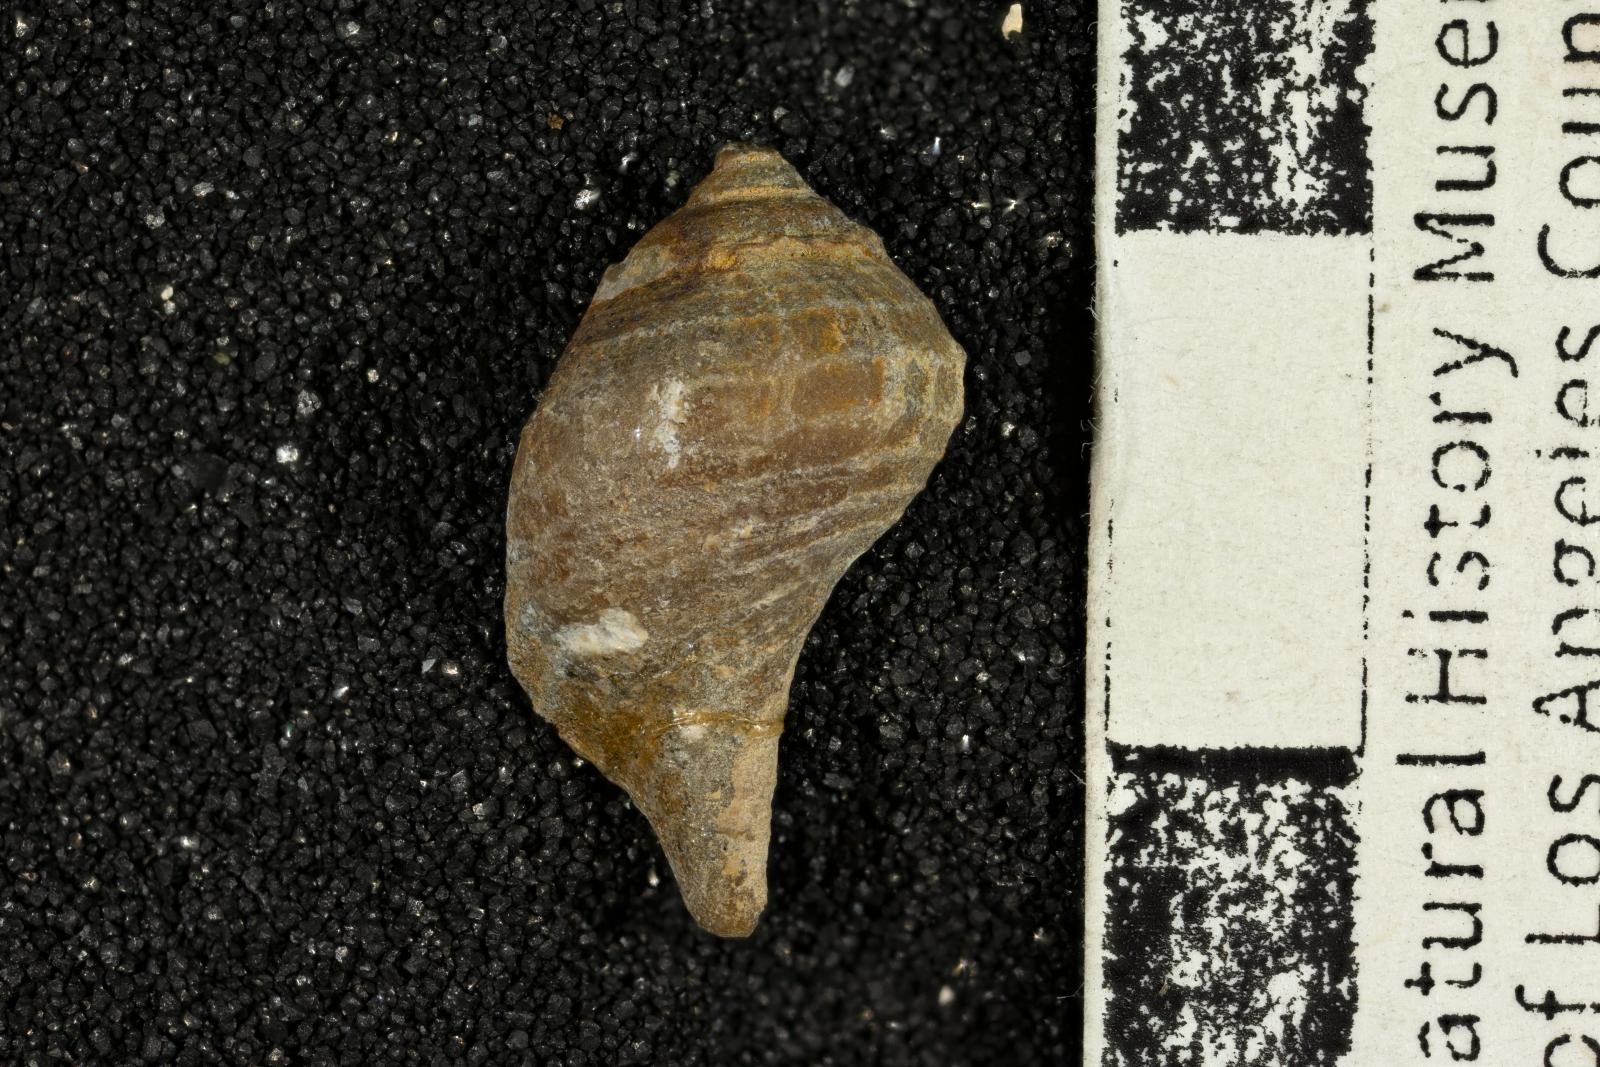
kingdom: Animalia
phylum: Mollusca
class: Gastropoda
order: Neogastropoda
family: Buccinidae
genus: Pentzia
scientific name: Pentzia Fulgur hilgardi
